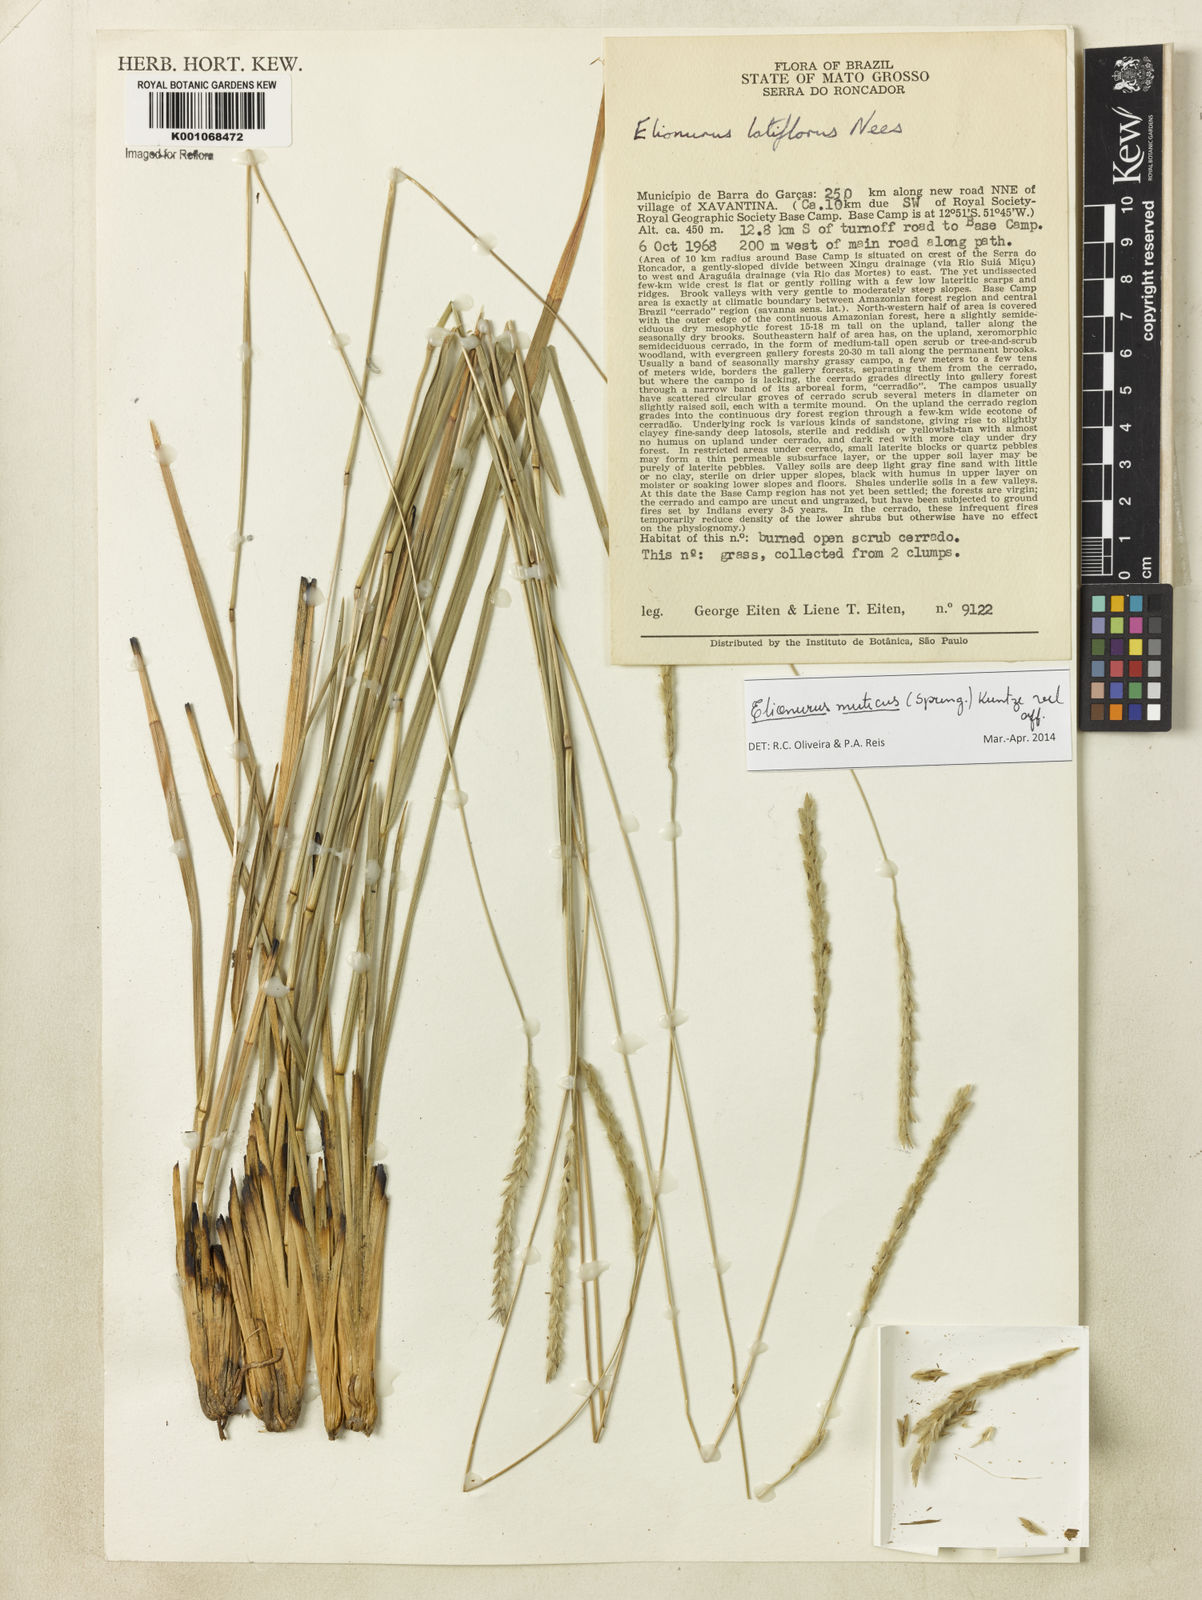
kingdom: Plantae
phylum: Tracheophyta
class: Liliopsida
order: Poales
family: Poaceae
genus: Elionurus
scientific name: Elionurus muticus
